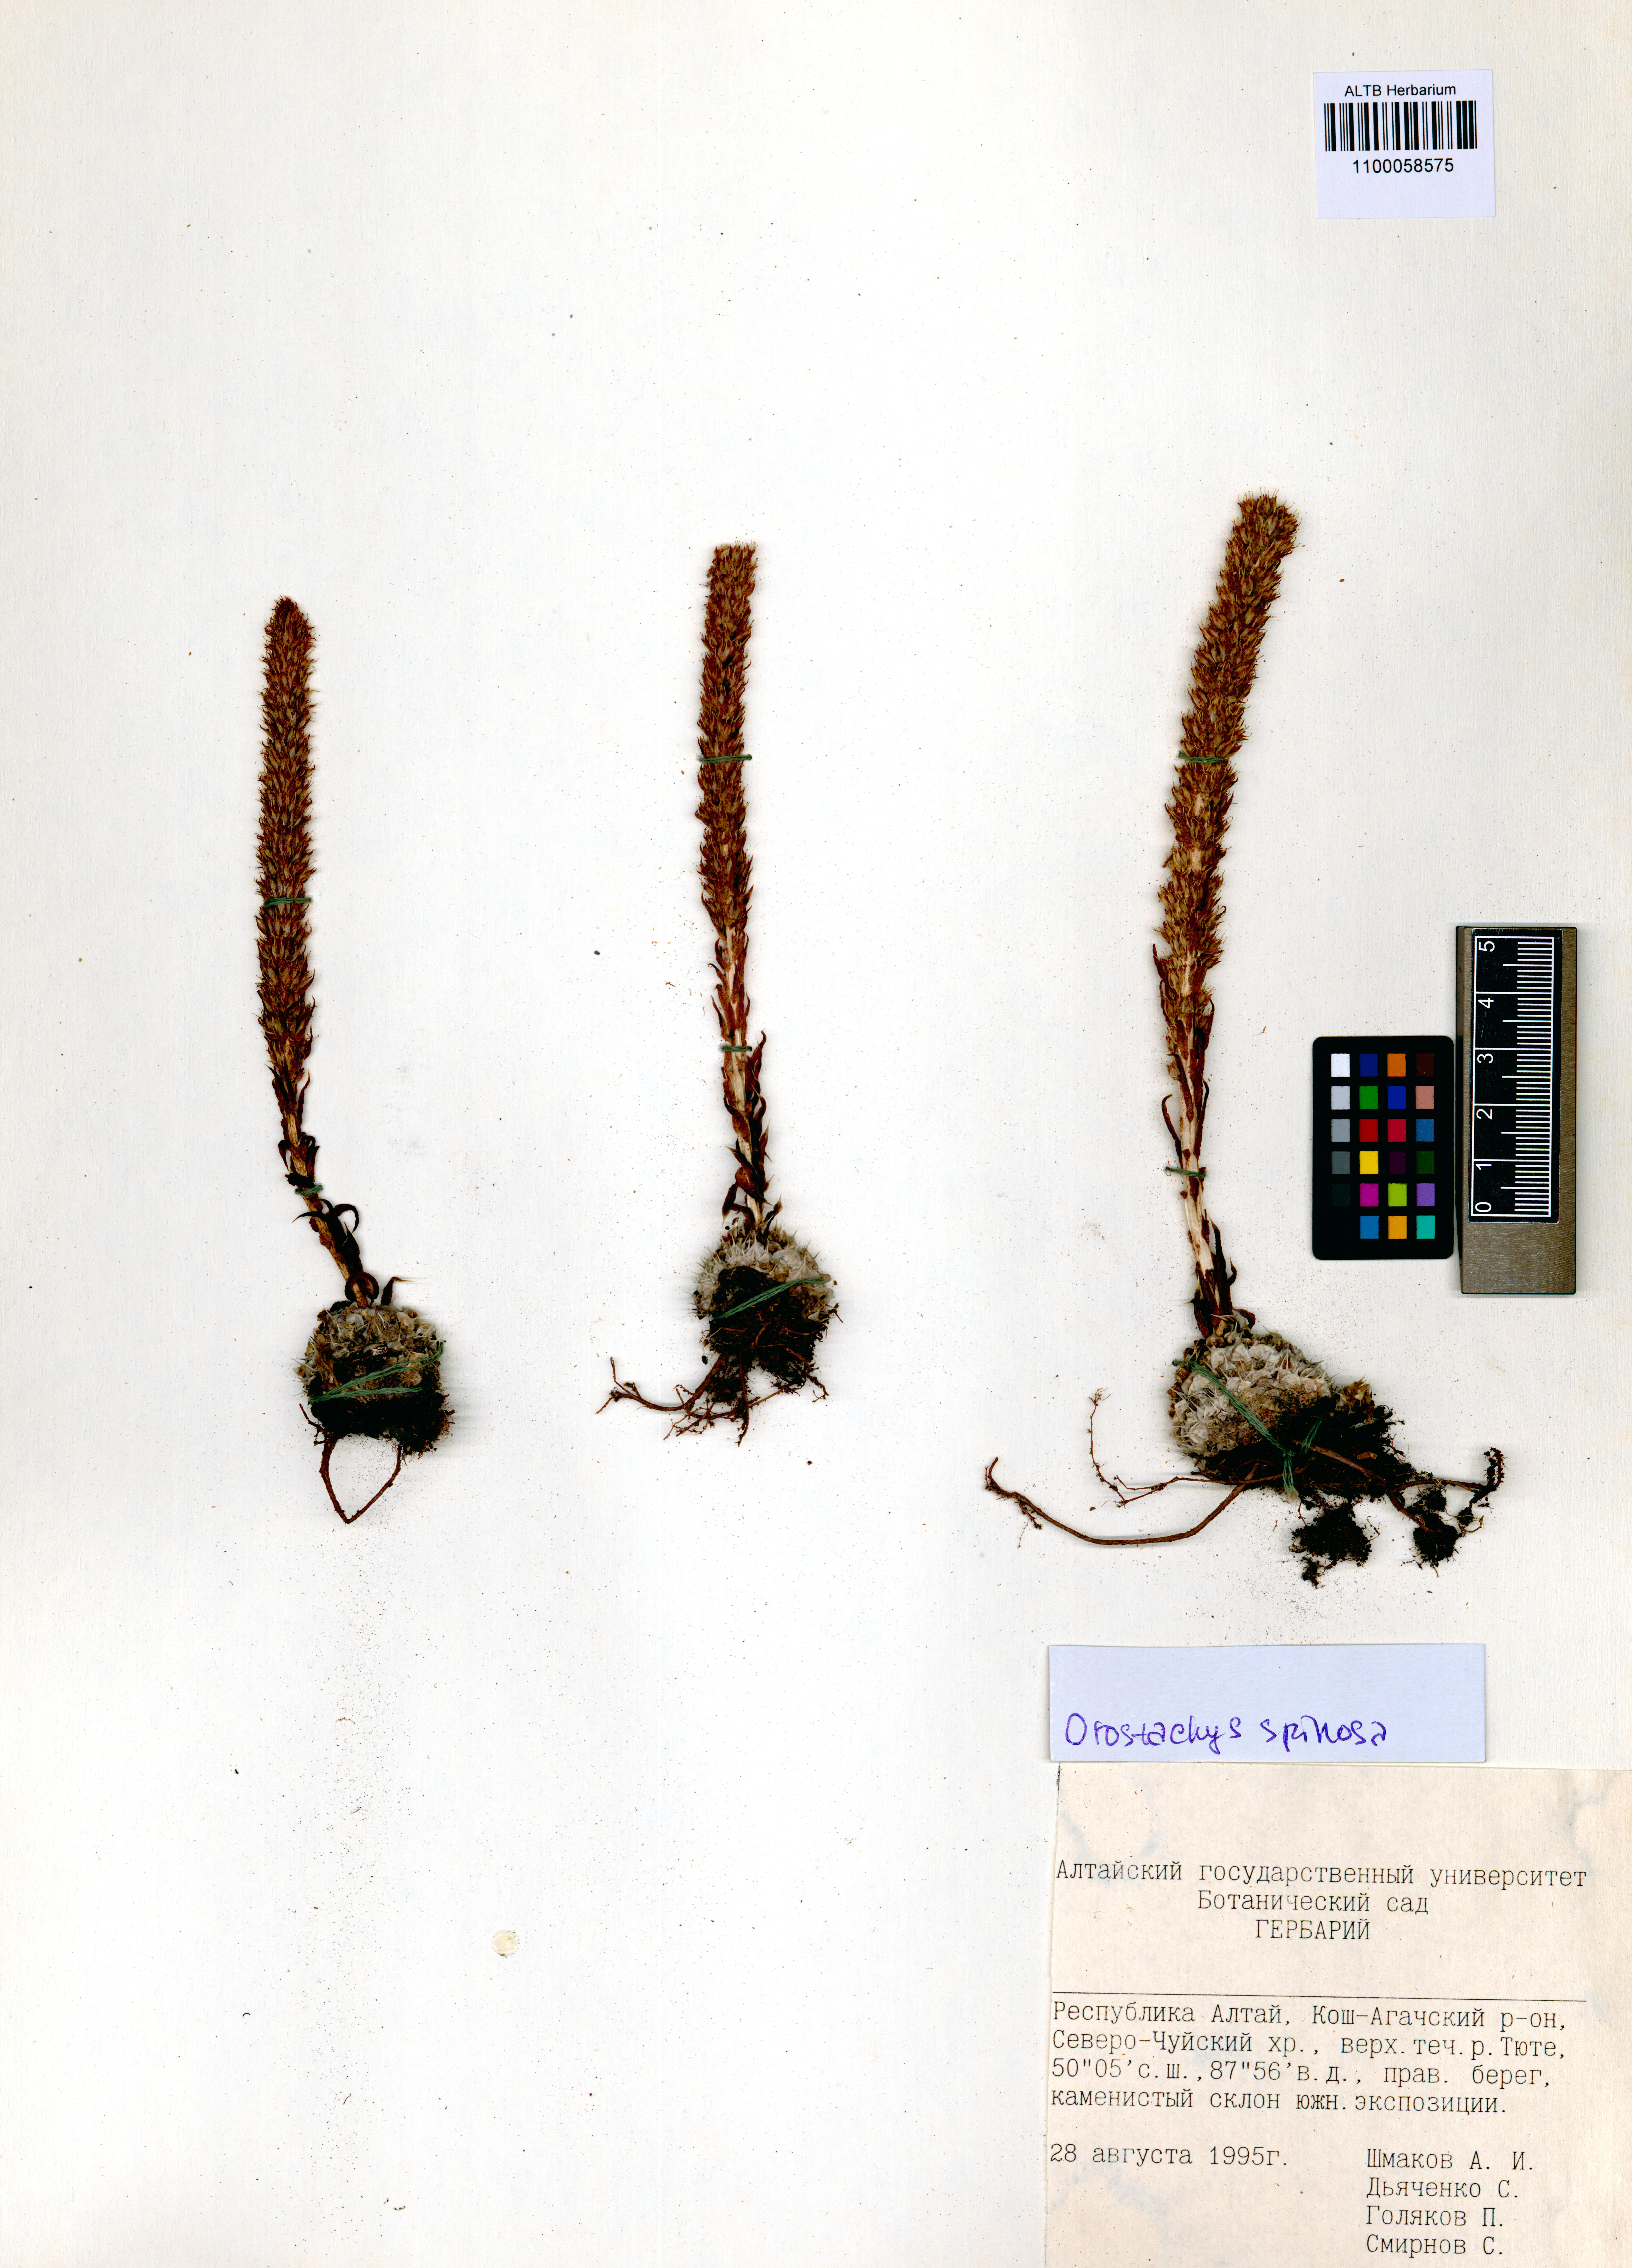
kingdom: Plantae
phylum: Tracheophyta
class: Magnoliopsida
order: Saxifragales
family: Crassulaceae
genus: Orostachys
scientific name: Orostachys spinosa
